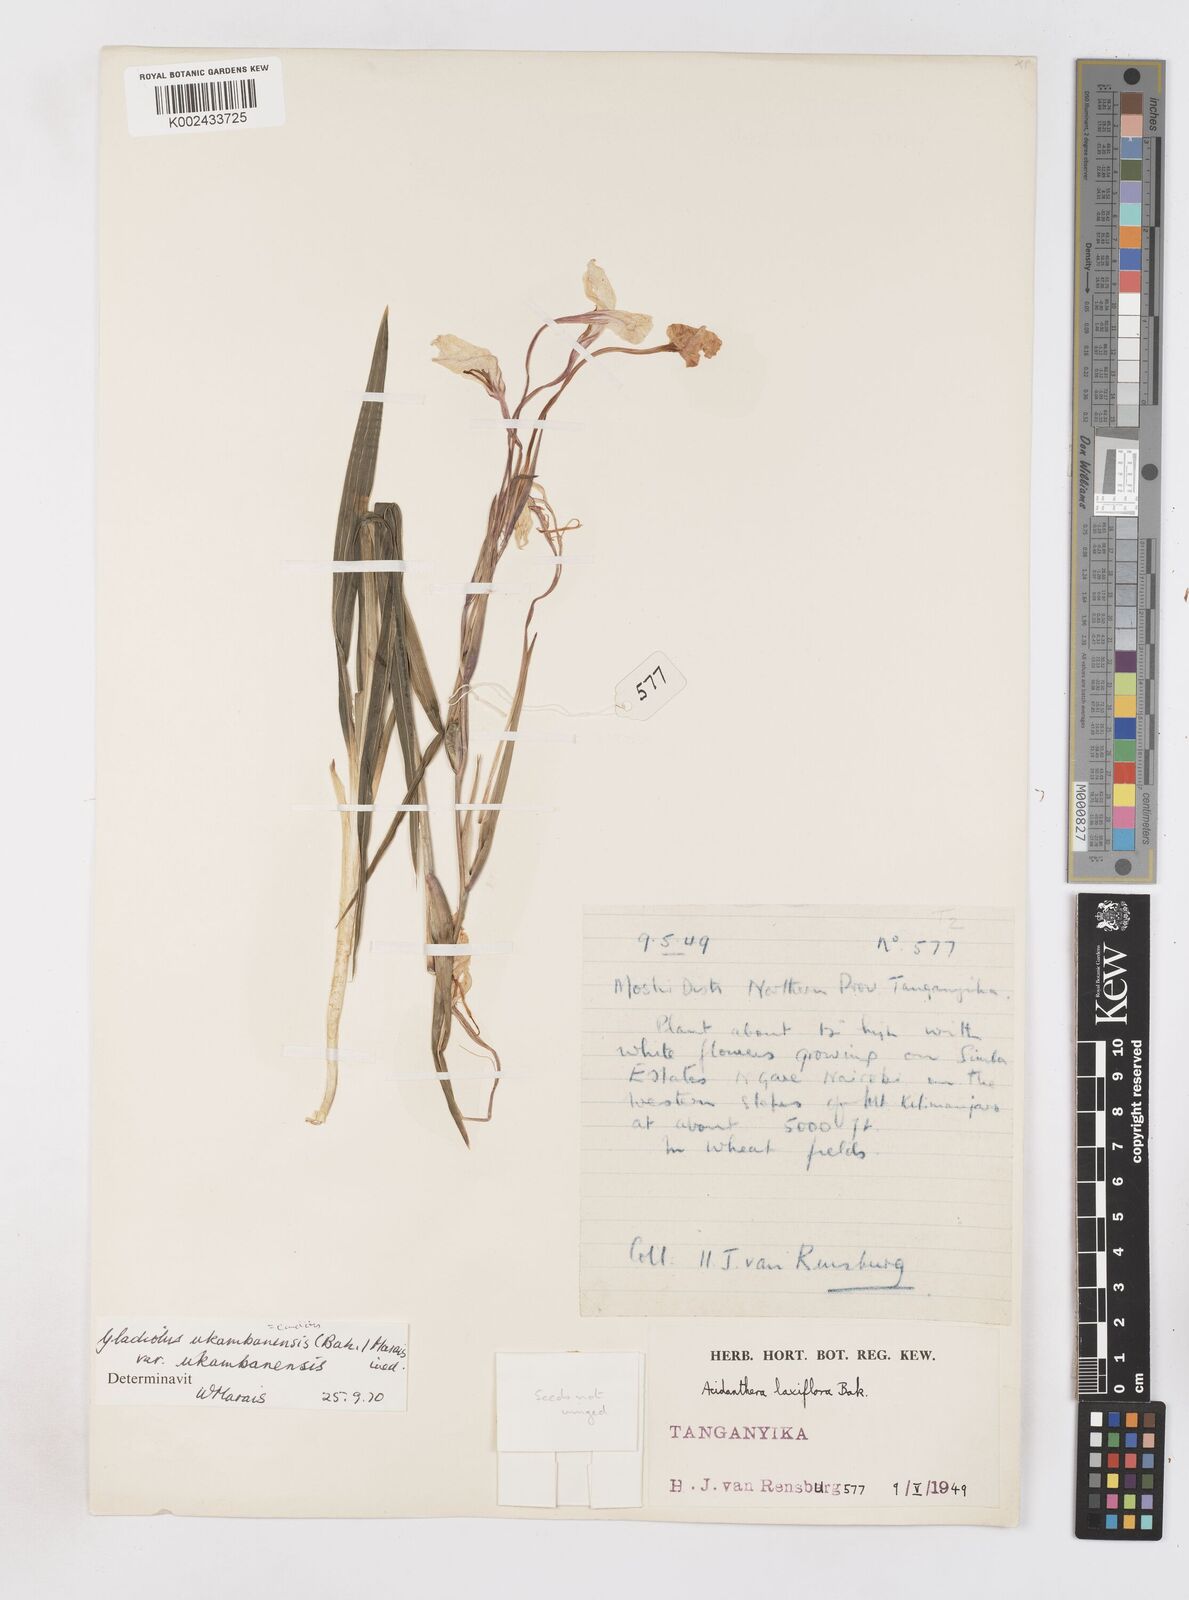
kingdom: Plantae
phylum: Tracheophyta
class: Liliopsida
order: Asparagales
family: Iridaceae
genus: Gladiolus
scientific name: Gladiolus candidus
